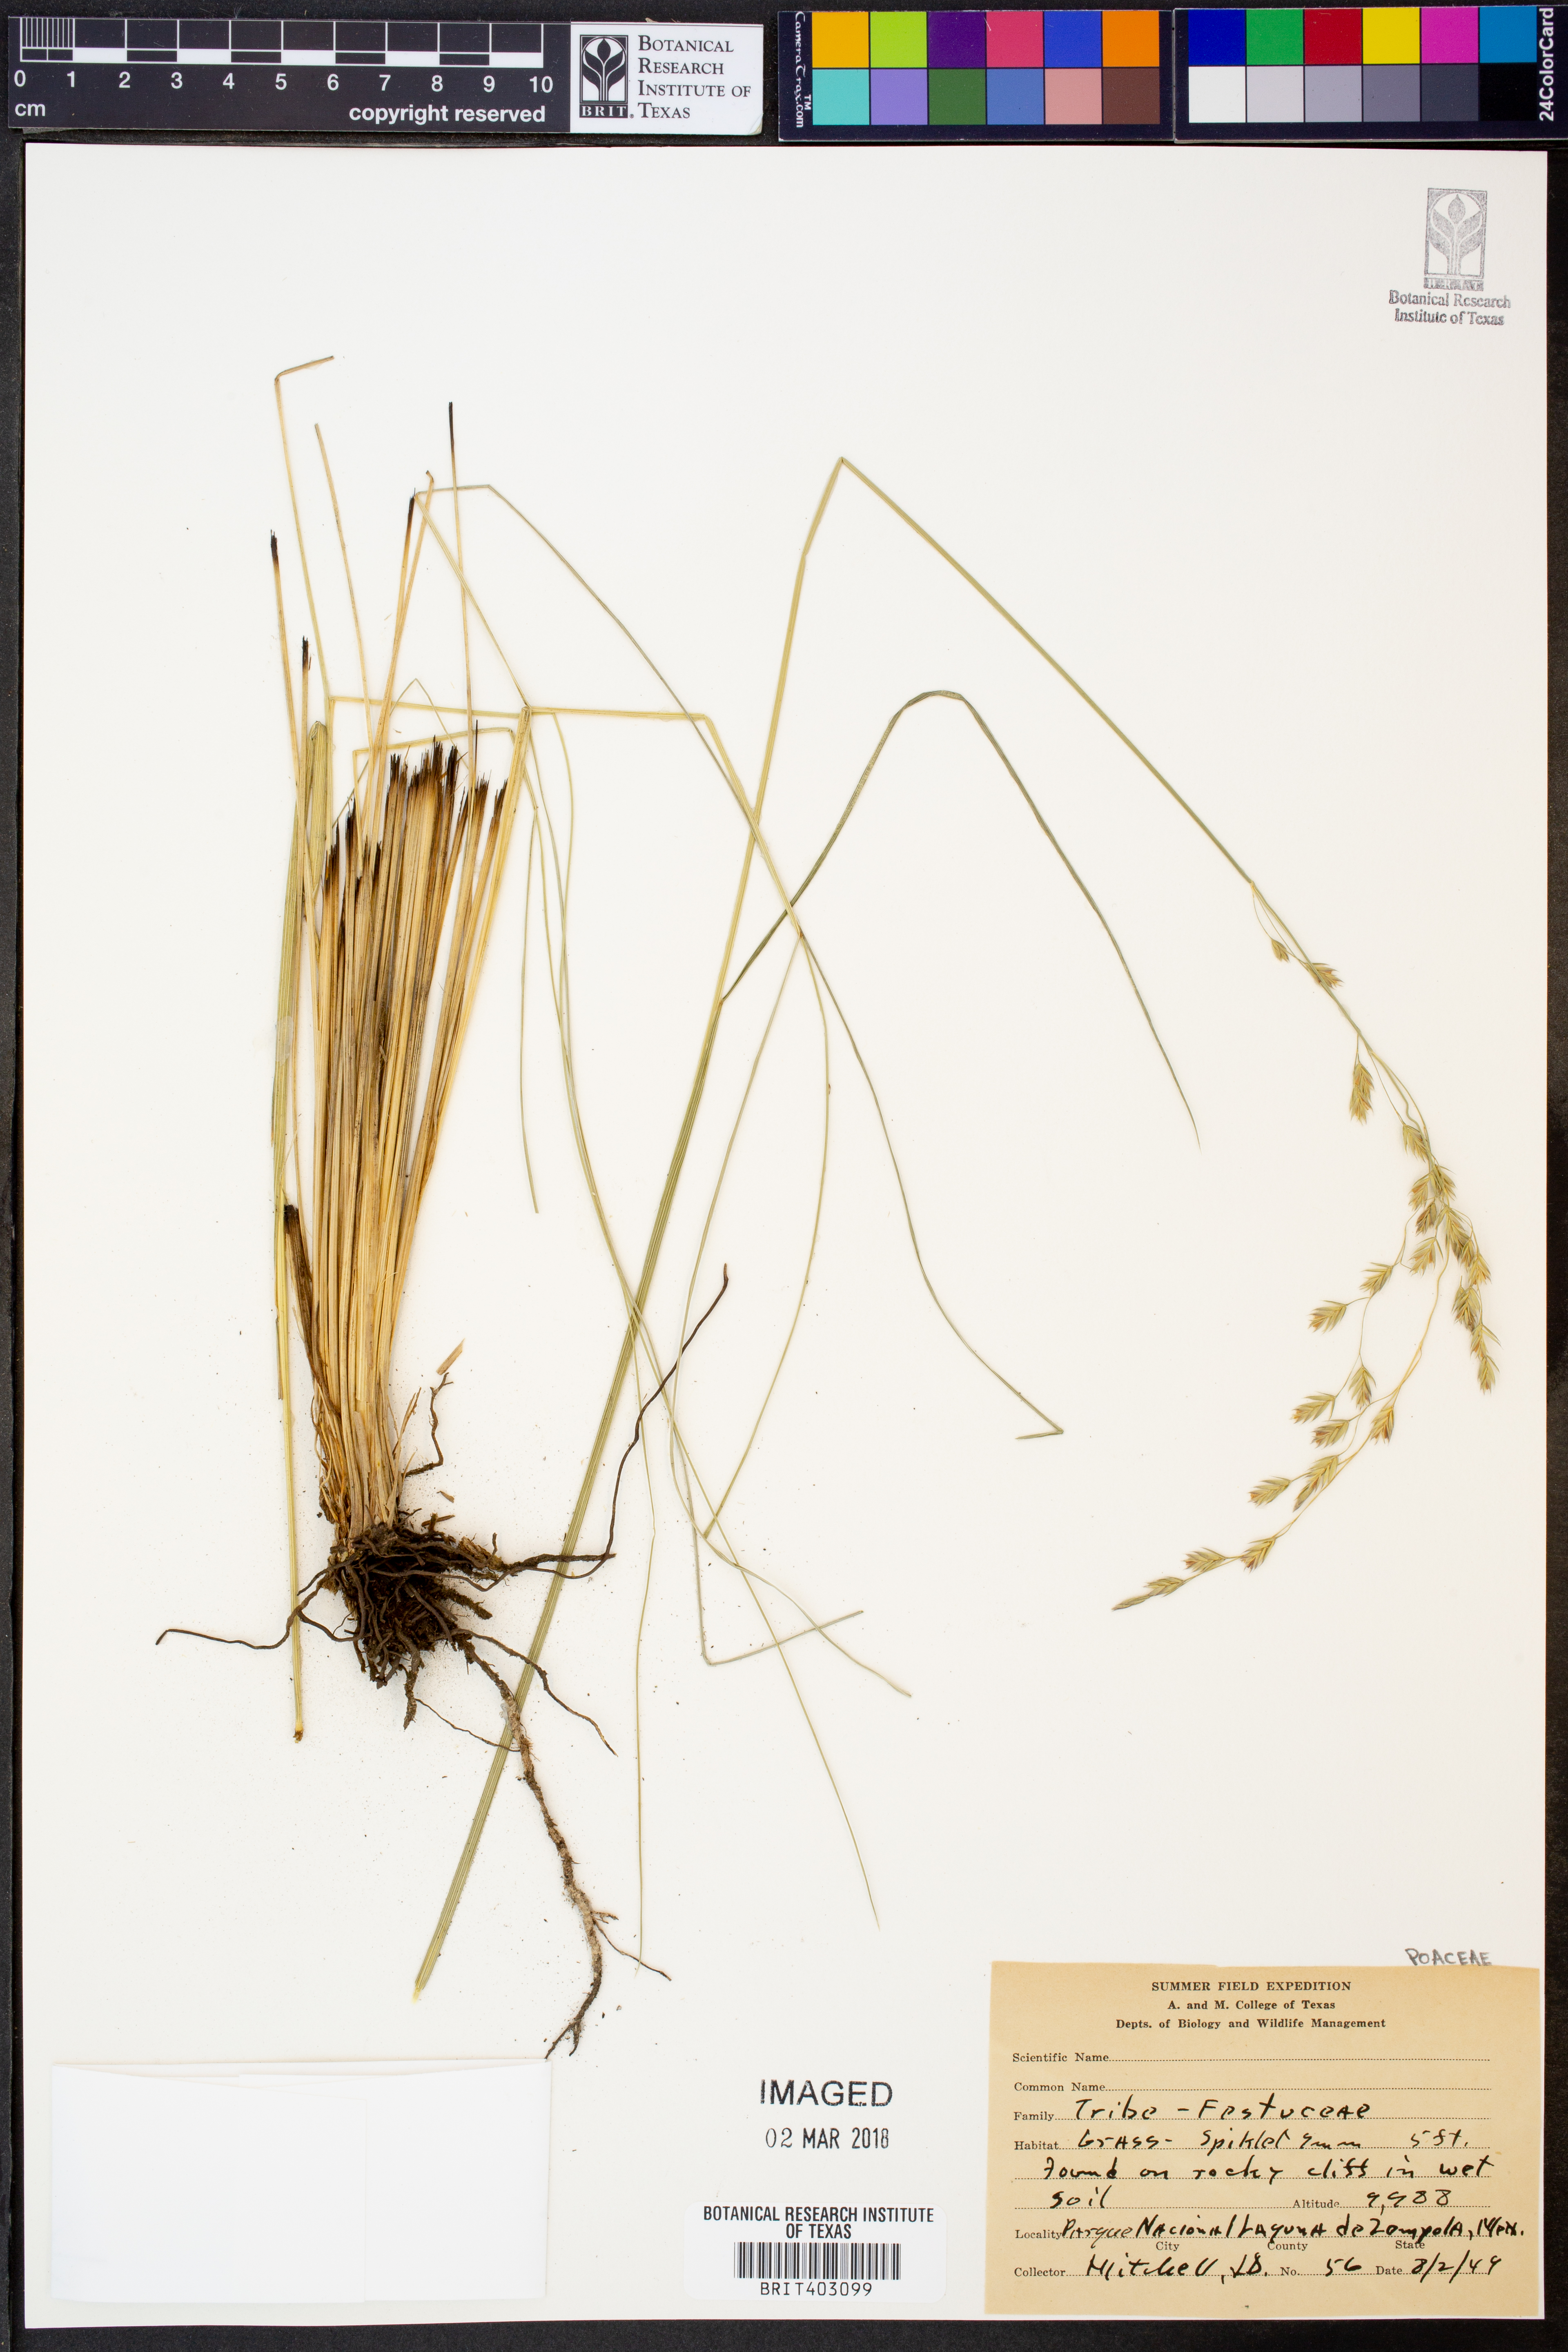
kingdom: Plantae
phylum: Tracheophyta
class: Liliopsida
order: Poales
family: Poaceae
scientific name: Poaceae
